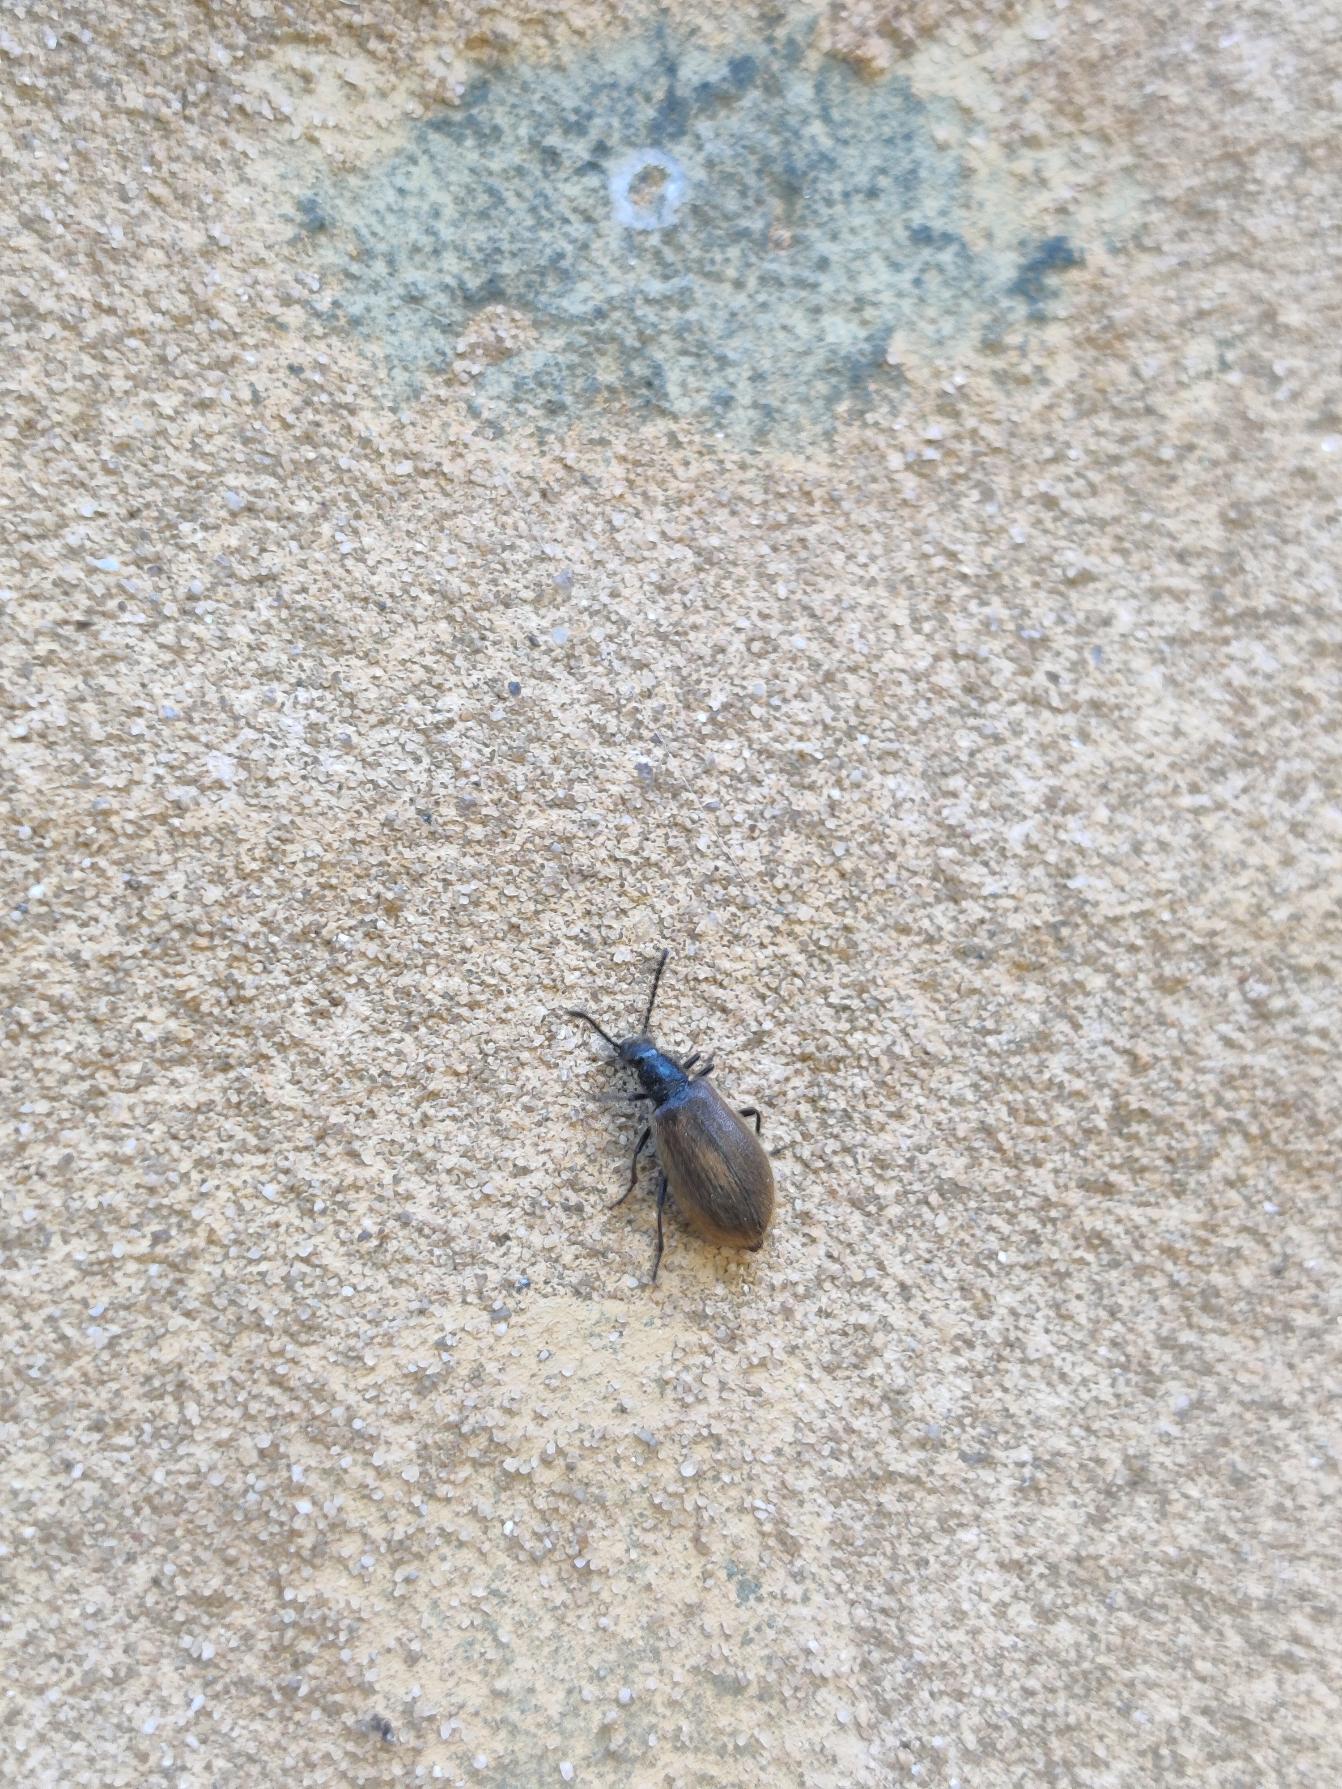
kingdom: Animalia
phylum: Arthropoda
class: Insecta
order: Coleoptera
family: Tenebrionidae
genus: Lagria
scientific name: Lagria hirta
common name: Håret skyggebille
